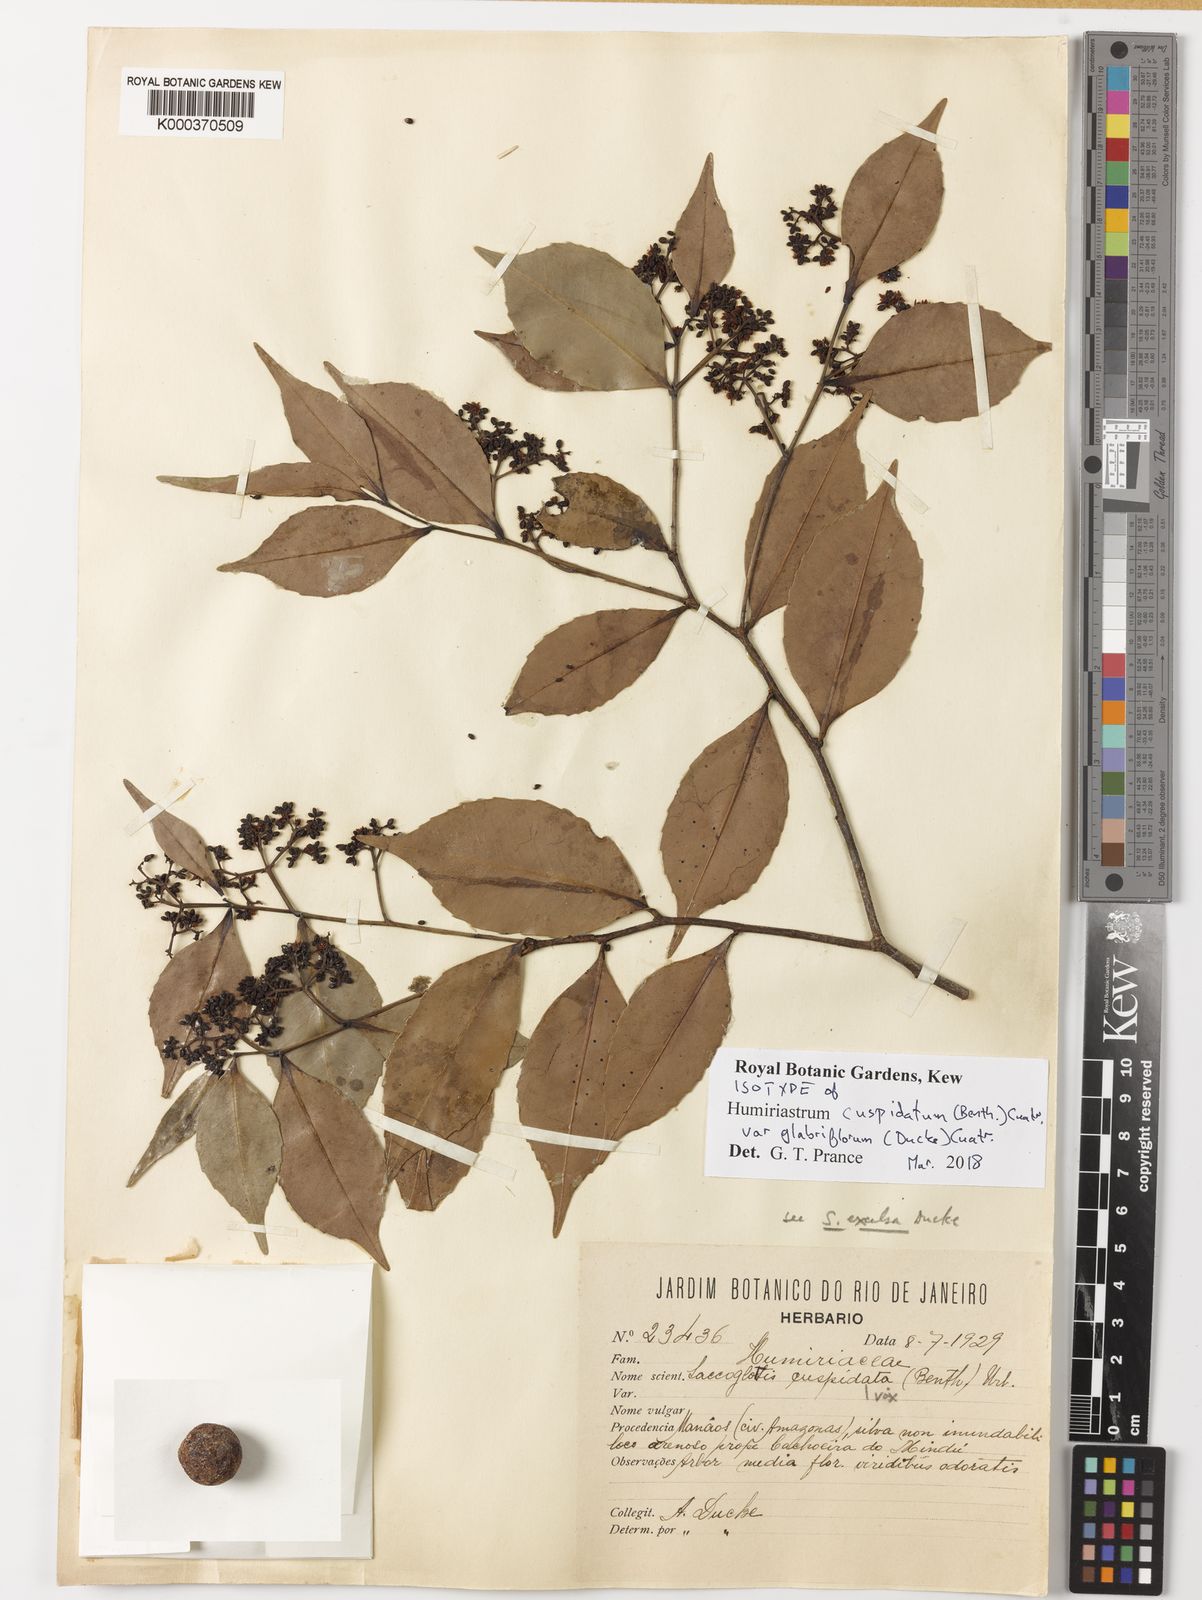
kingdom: Plantae
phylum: Tracheophyta
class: Magnoliopsida
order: Malpighiales
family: Humiriaceae
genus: Humiriastrum
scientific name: Humiriastrum cuspidatum
